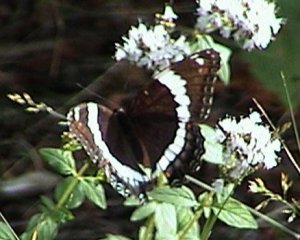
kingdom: Animalia
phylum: Arthropoda
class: Insecta
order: Lepidoptera
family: Nymphalidae
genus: Limenitis
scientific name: Limenitis arthemis
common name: Red-spotted Admiral
